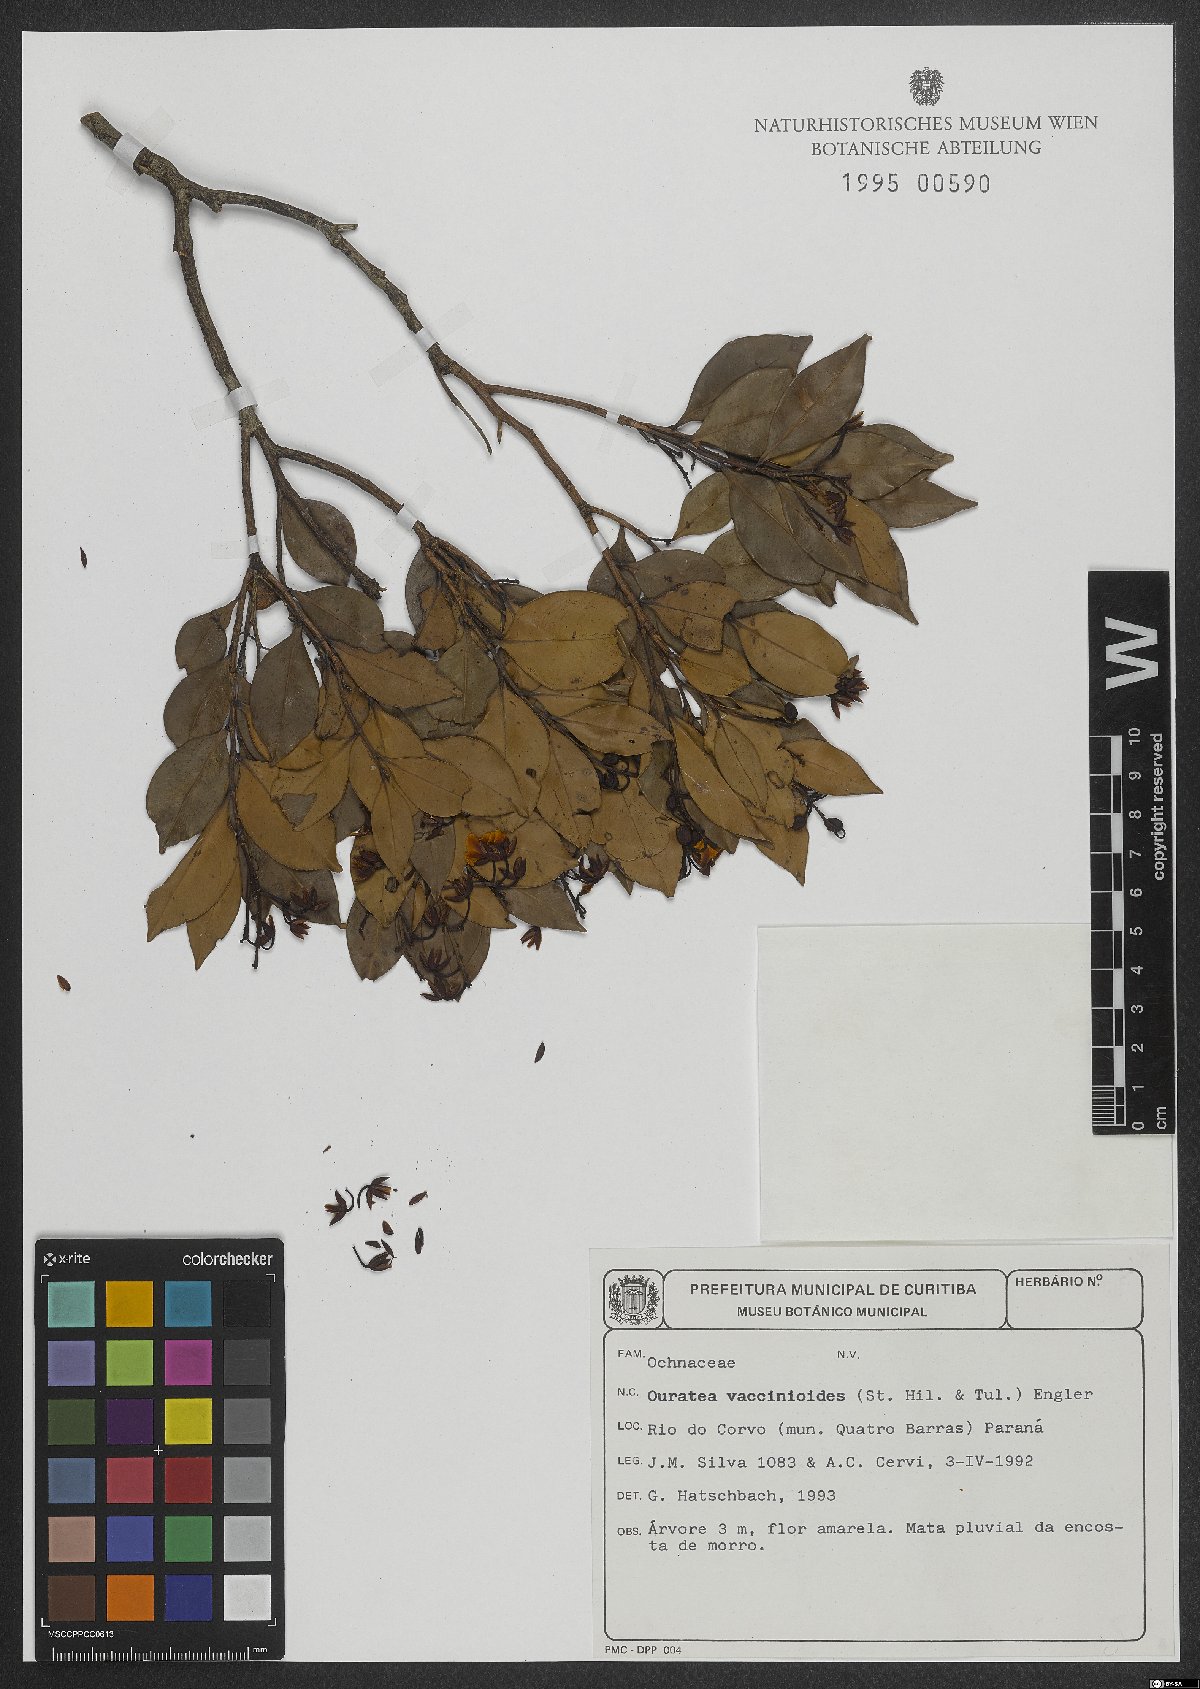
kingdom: Plantae
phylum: Tracheophyta
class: Magnoliopsida
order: Malpighiales
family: Ochnaceae
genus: Ouratea
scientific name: Ouratea vaccinioides
